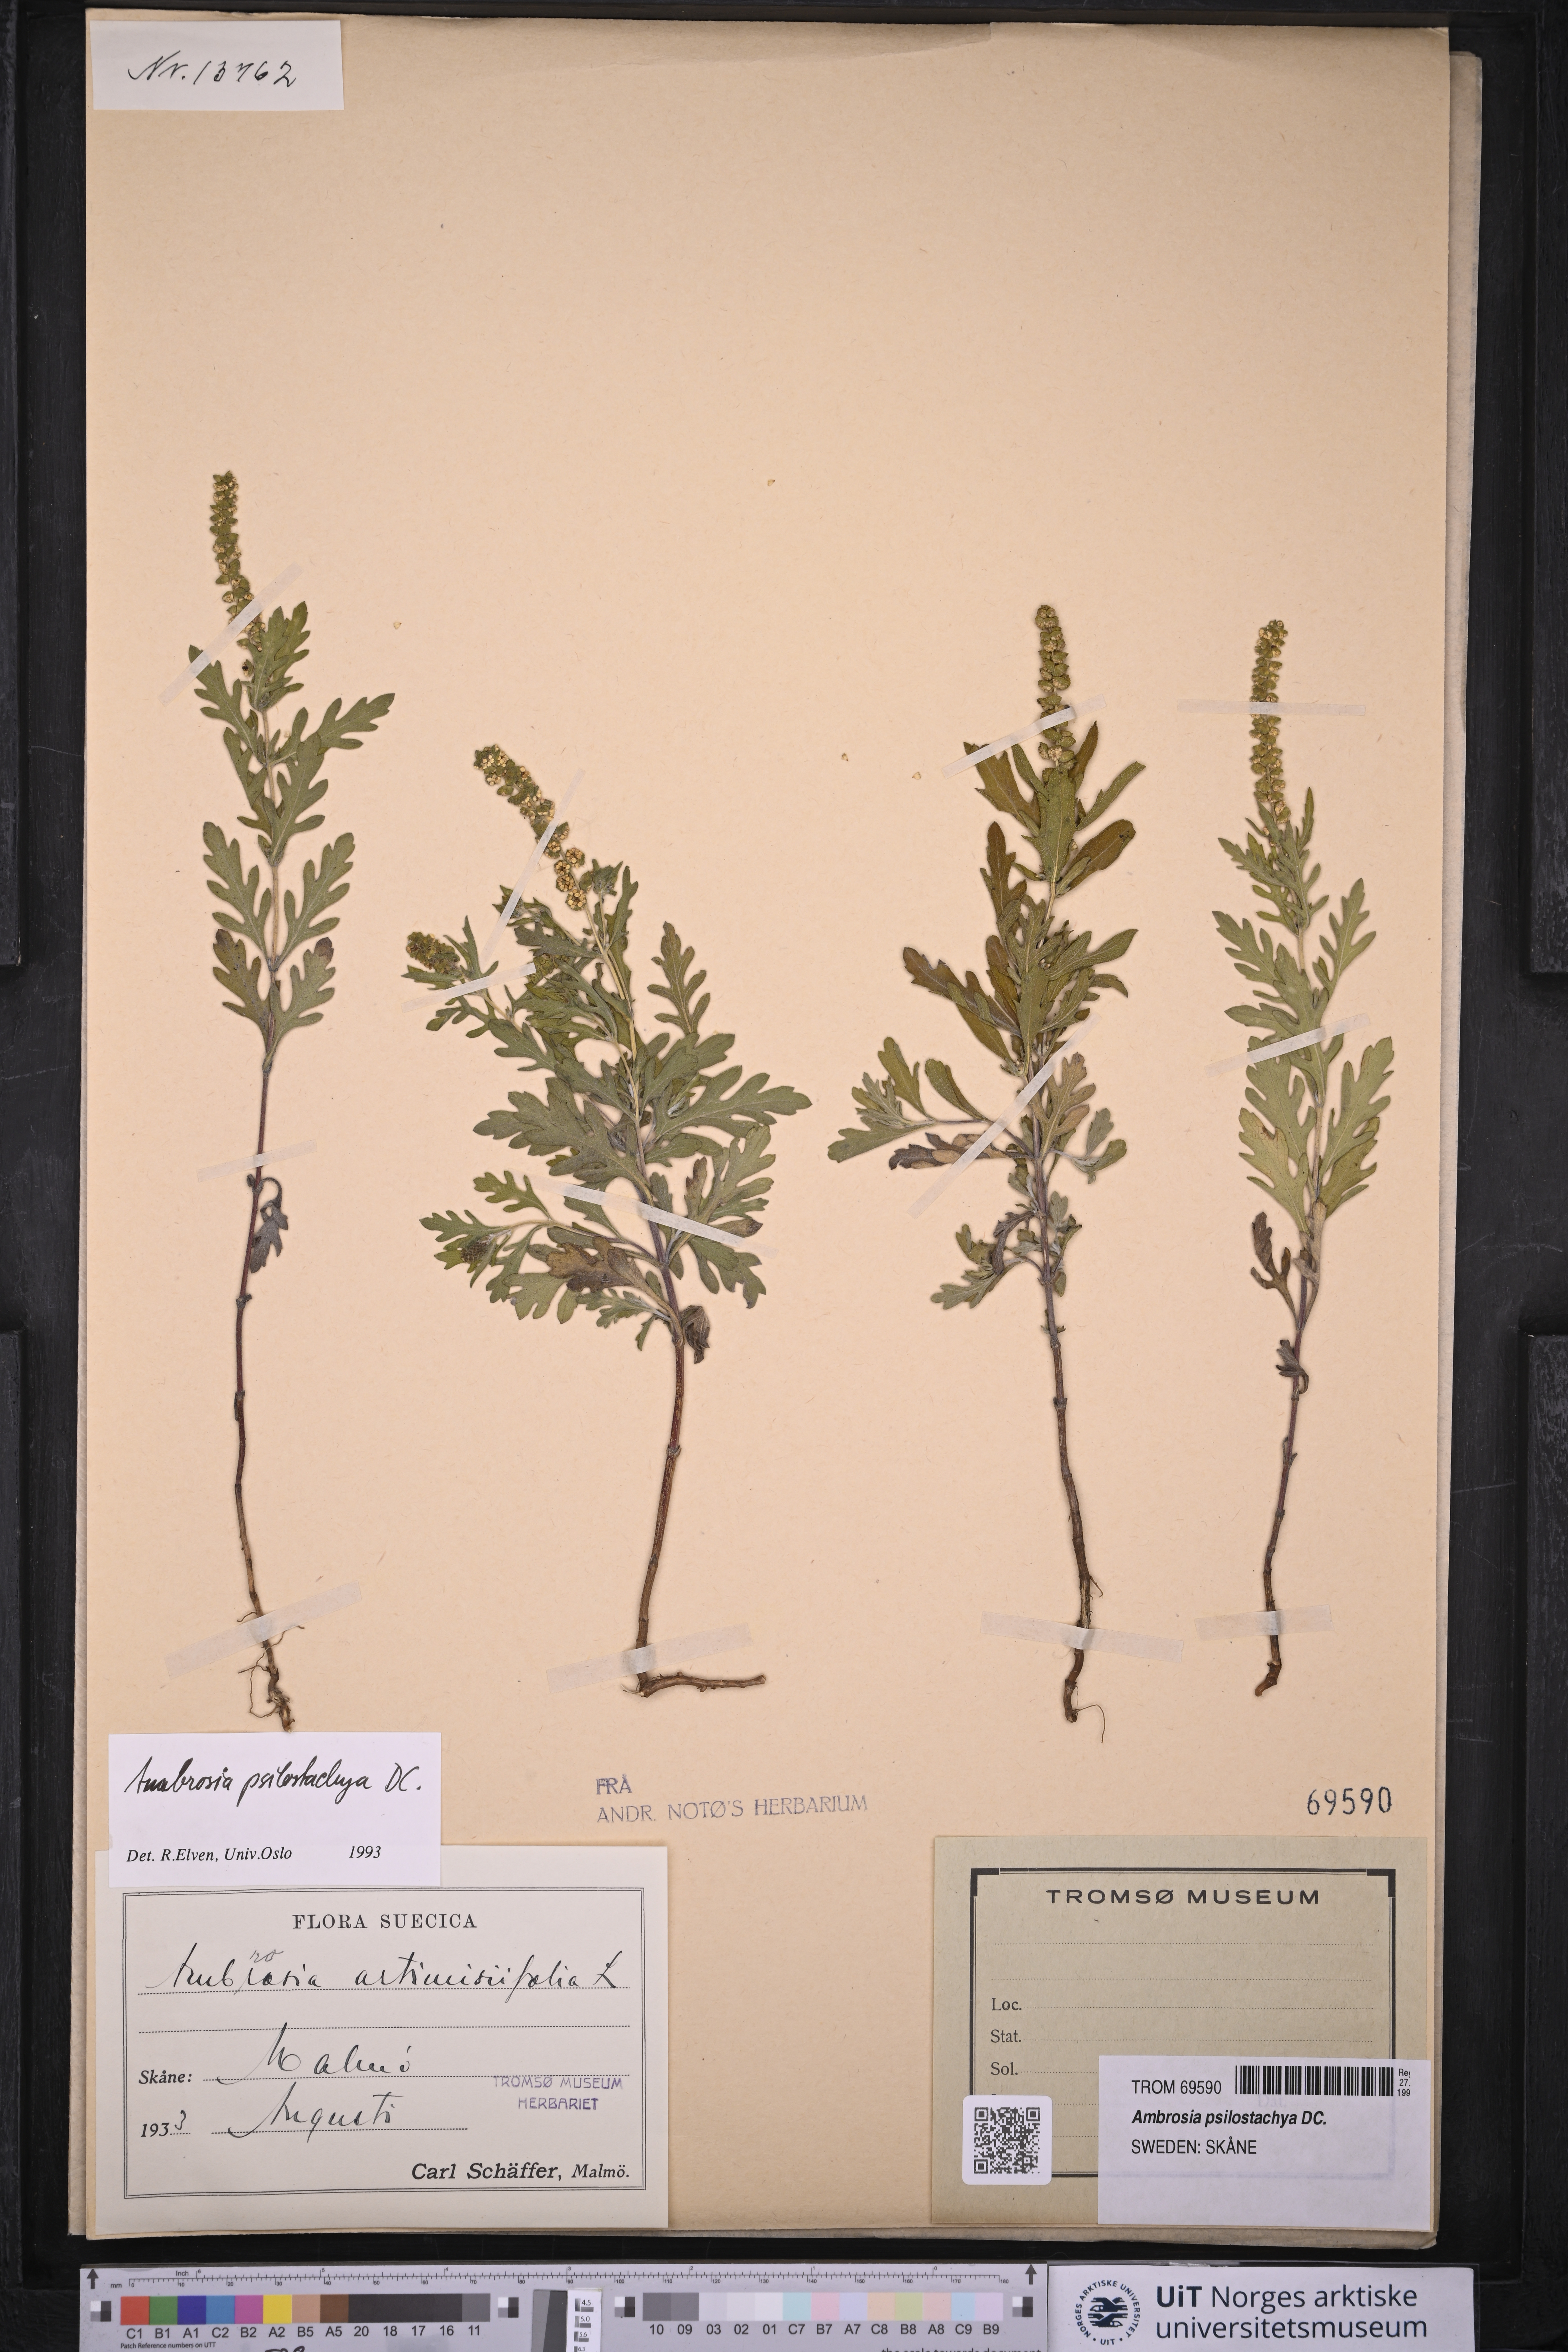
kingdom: Plantae
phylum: Tracheophyta
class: Magnoliopsida
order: Asterales
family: Asteraceae
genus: Ambrosia
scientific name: Ambrosia psilostachya
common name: Perennial ragweed
